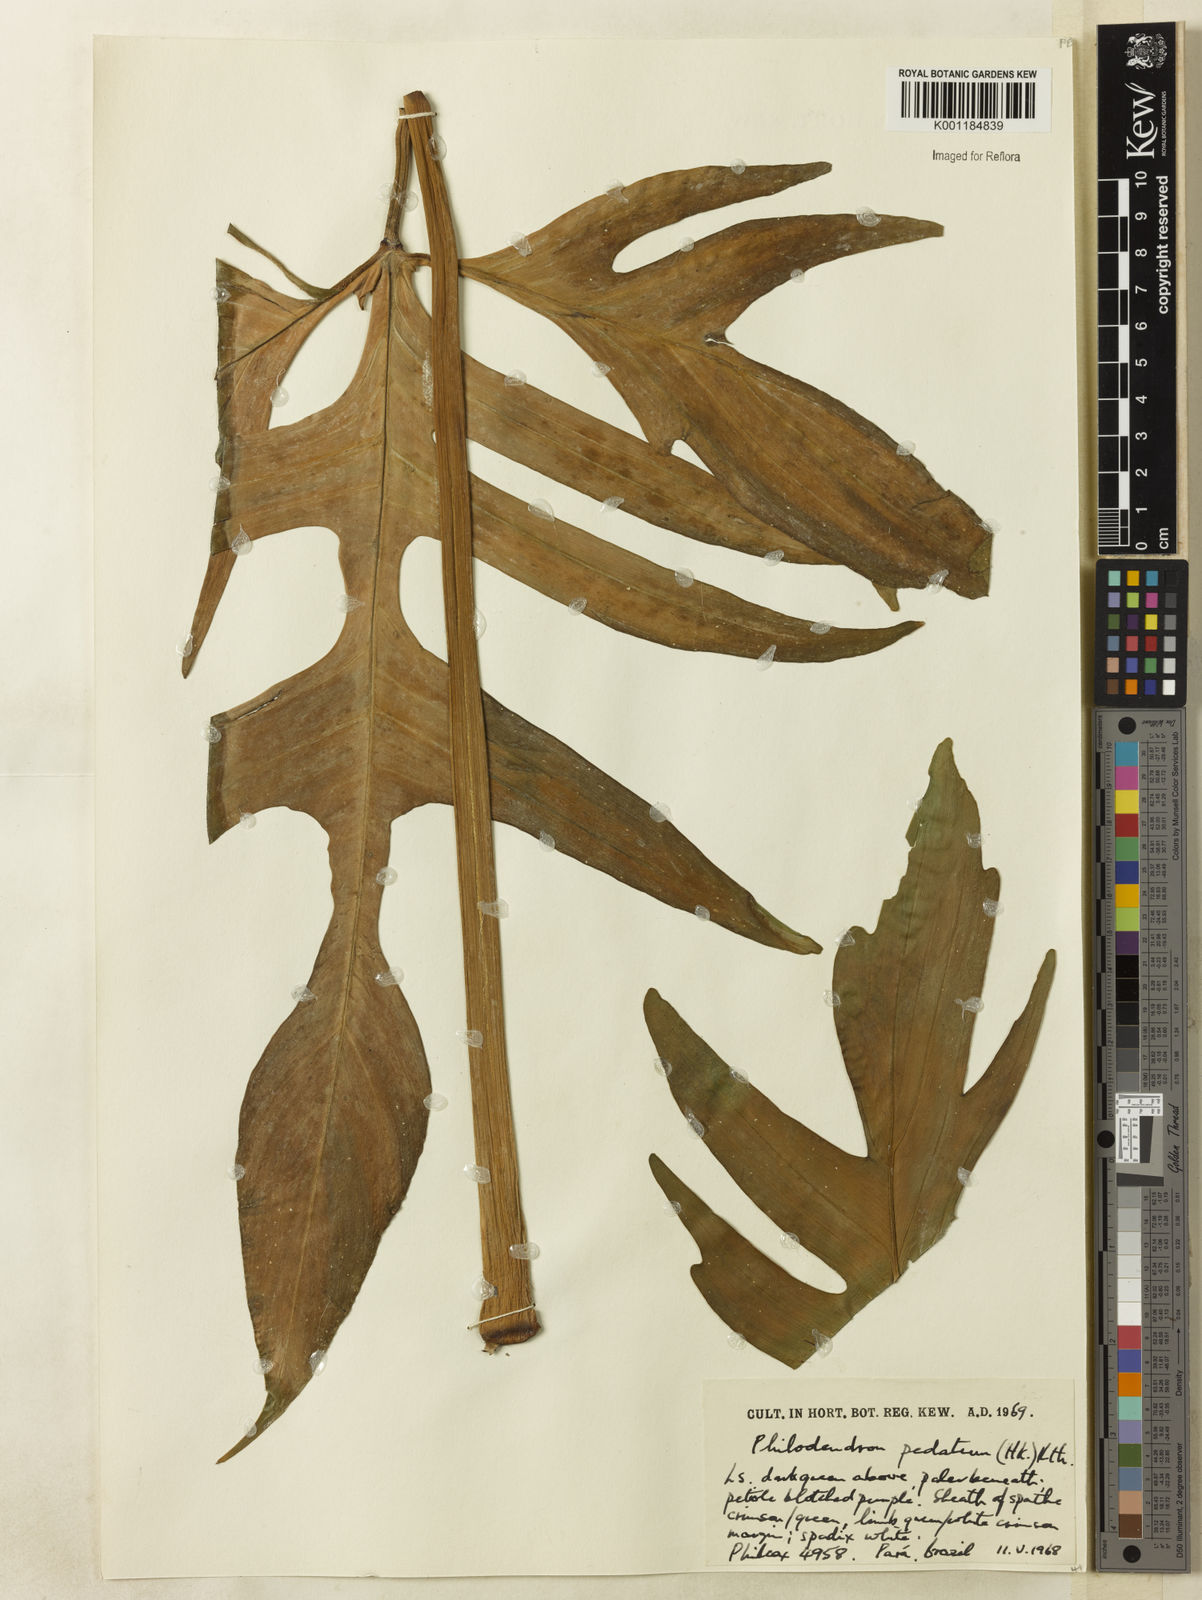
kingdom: Plantae
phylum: Tracheophyta
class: Liliopsida
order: Alismatales
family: Araceae
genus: Philodendron
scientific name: Philodendron pedatum
